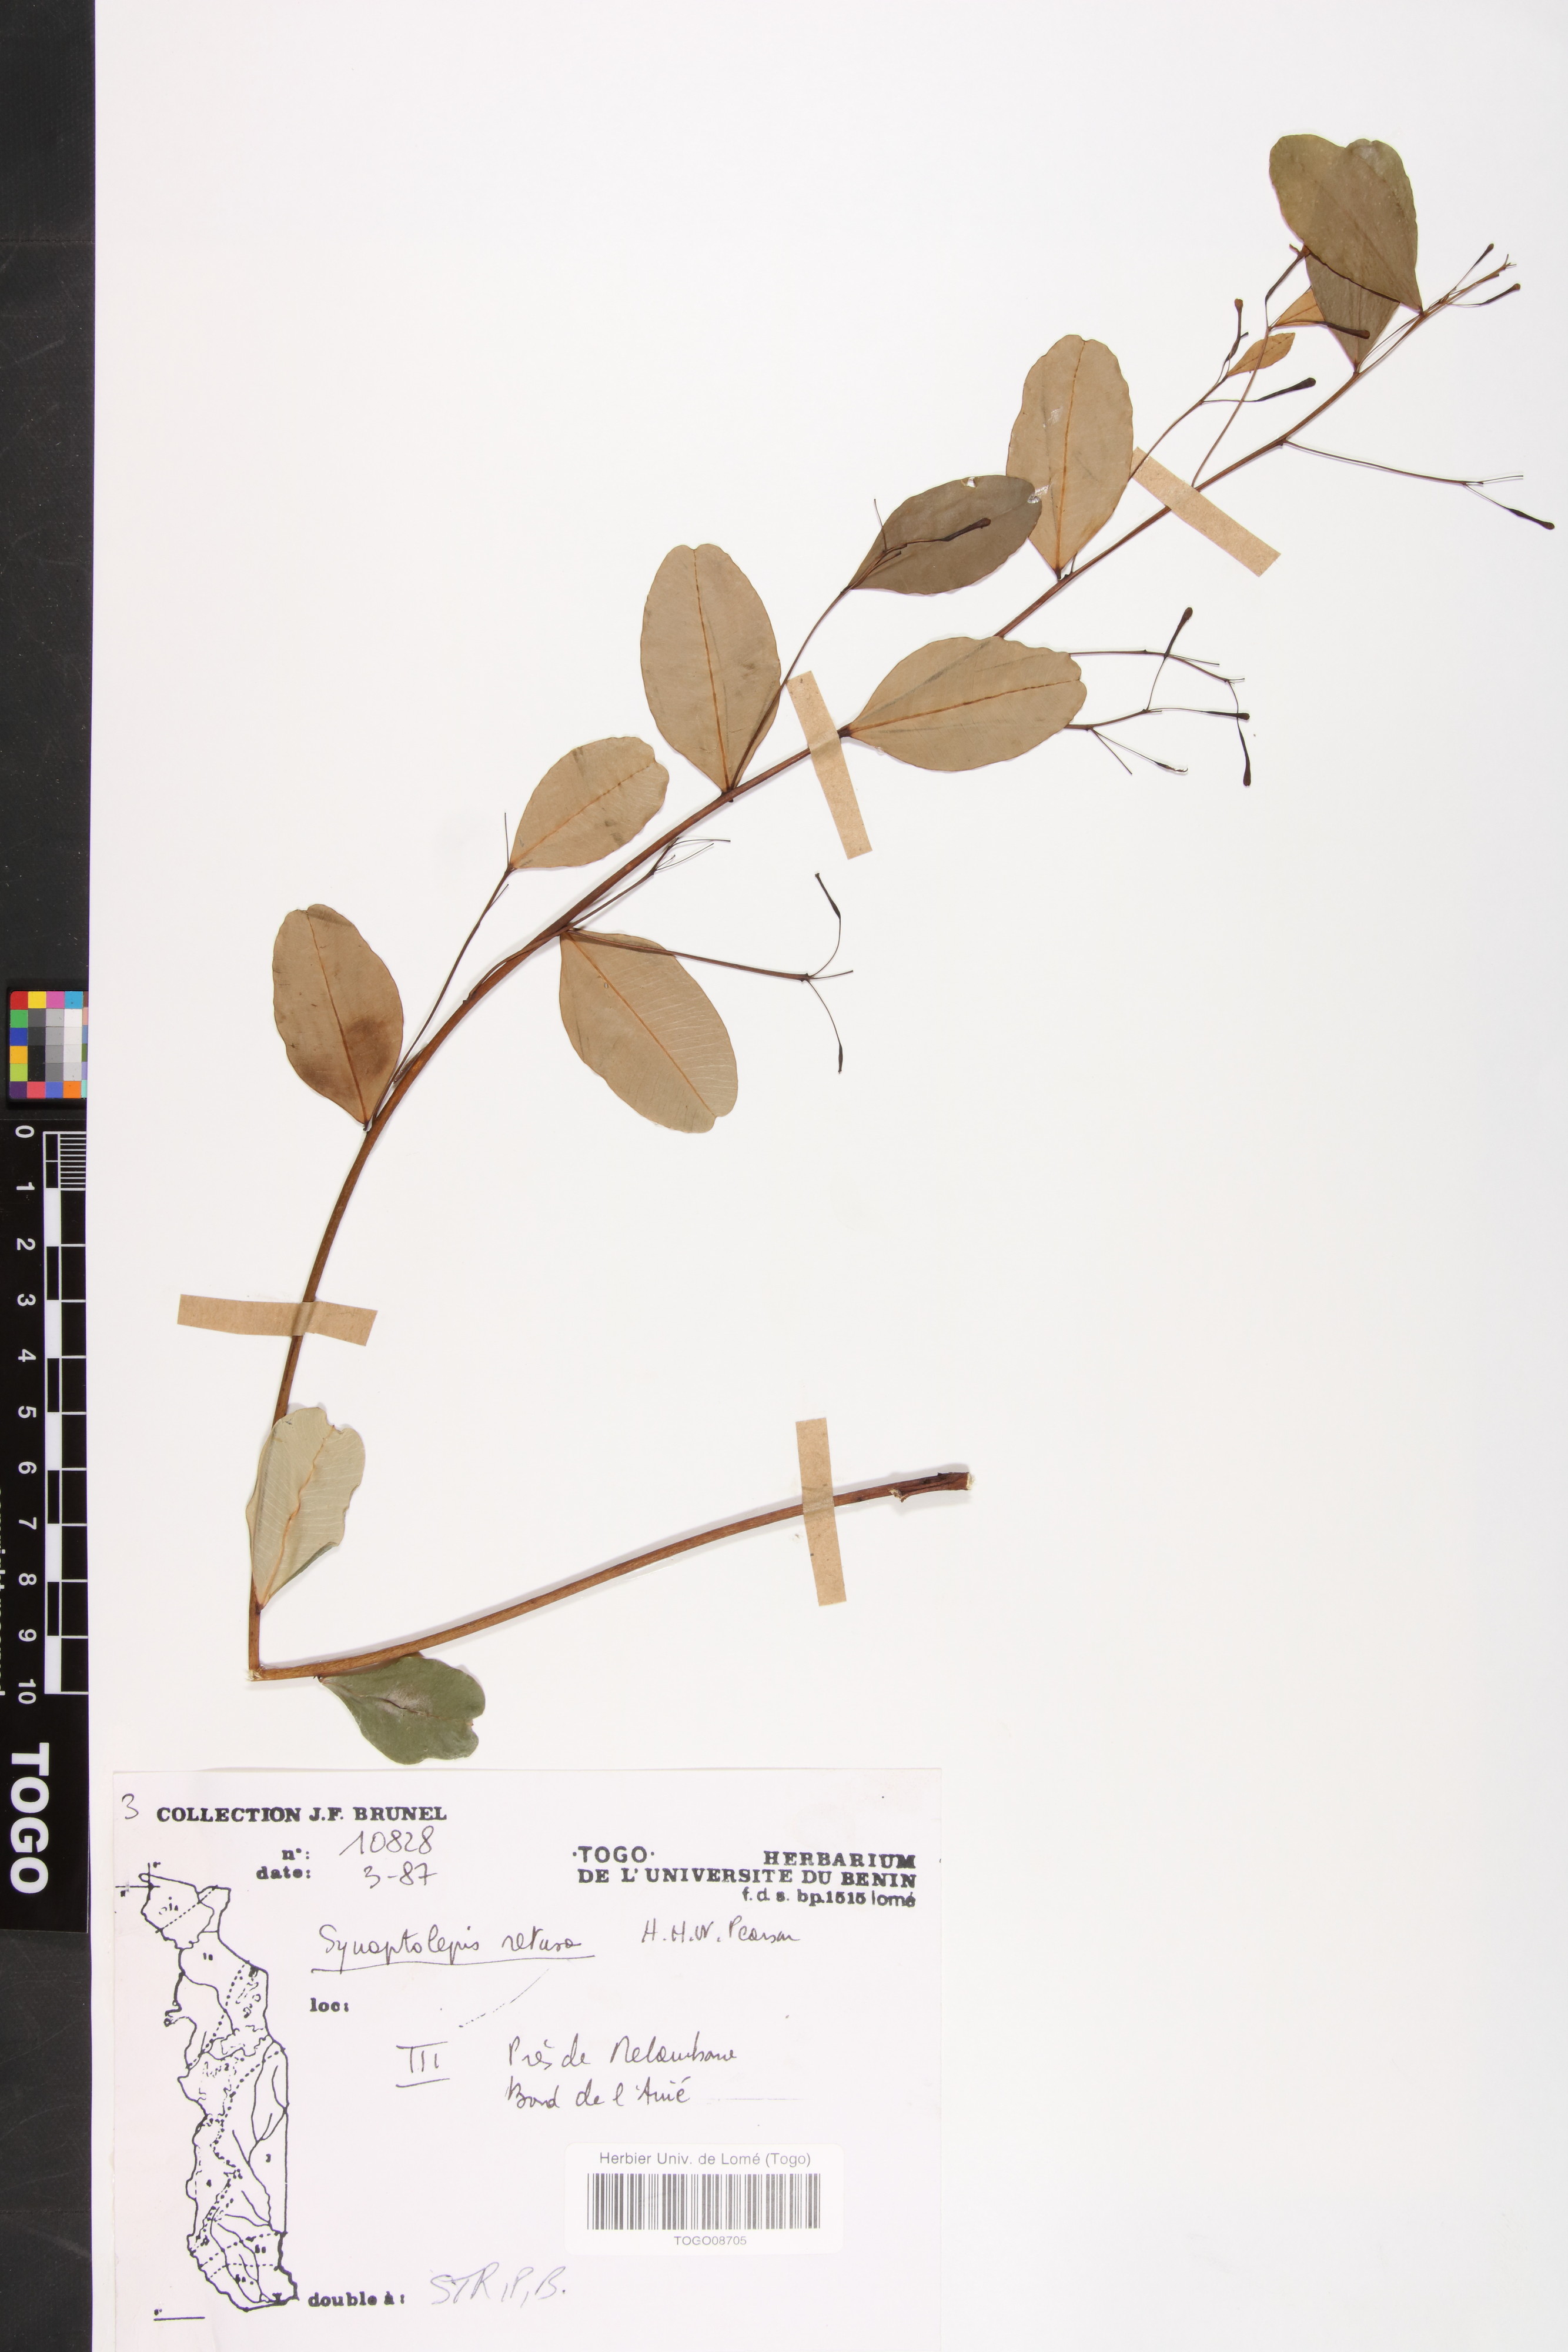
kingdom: Plantae
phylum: Tracheophyta
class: Magnoliopsida
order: Malvales
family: Thymelaeaceae
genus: Synaptolepis
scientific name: Synaptolepis retusa
